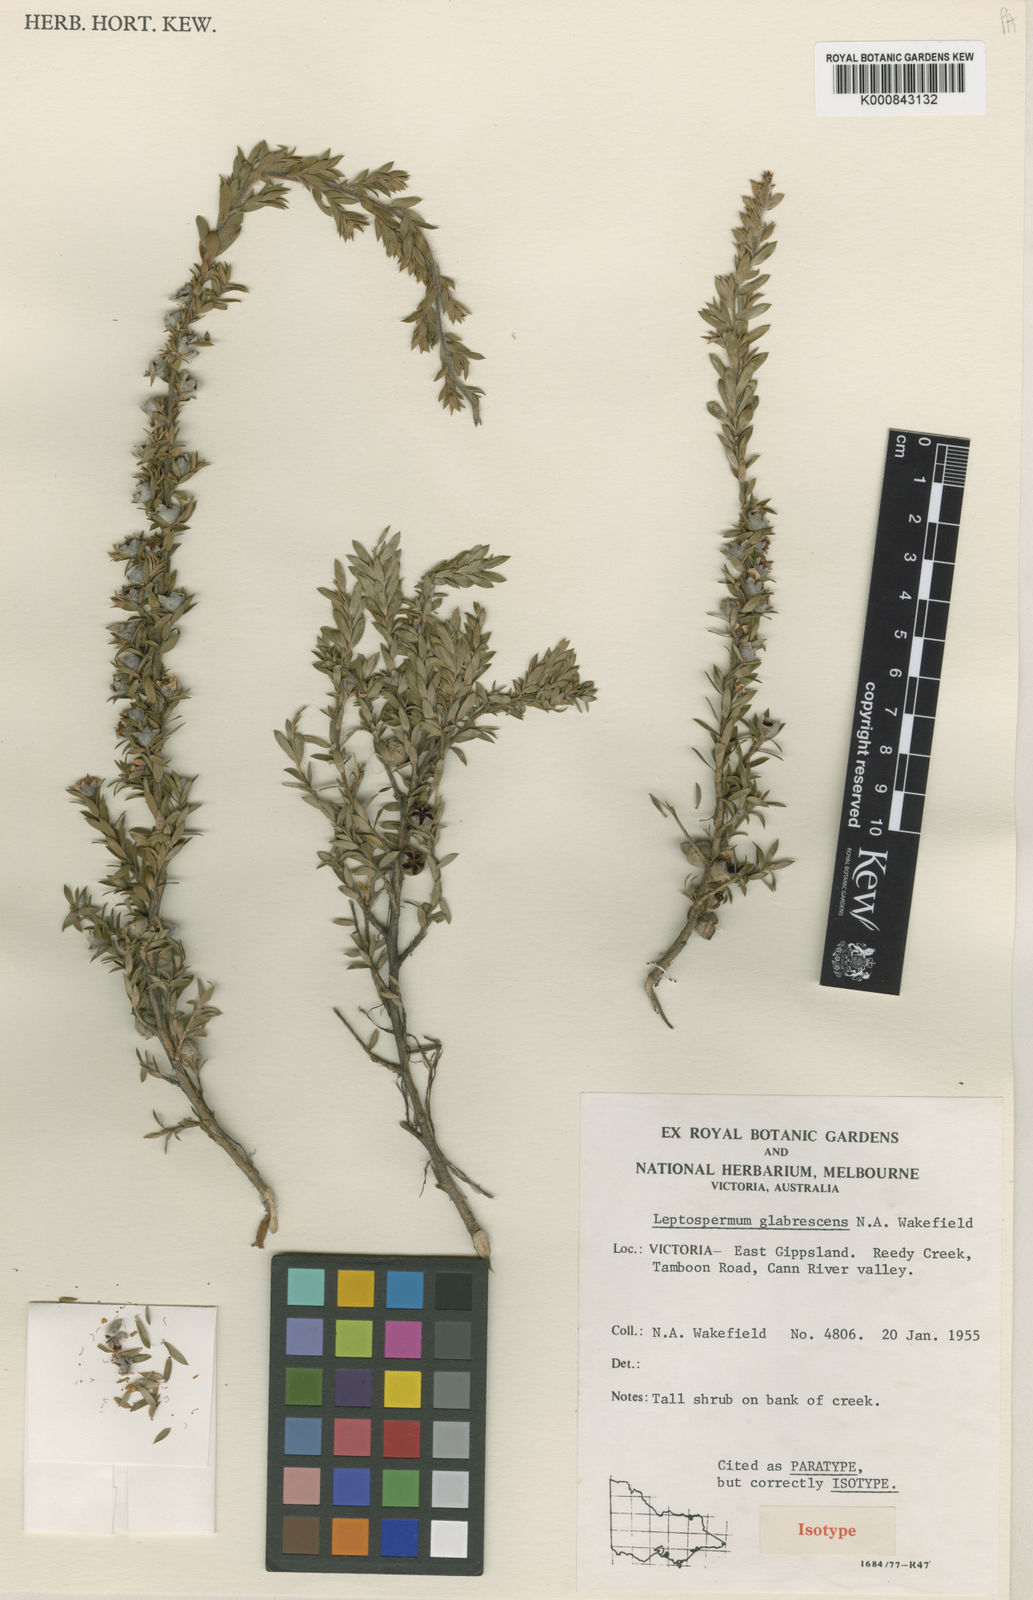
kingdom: Plantae
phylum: Tracheophyta
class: Magnoliopsida
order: Myrtales
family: Myrtaceae
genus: Leptospermum
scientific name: Leptospermum glabrescens
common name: Smooth teatree
